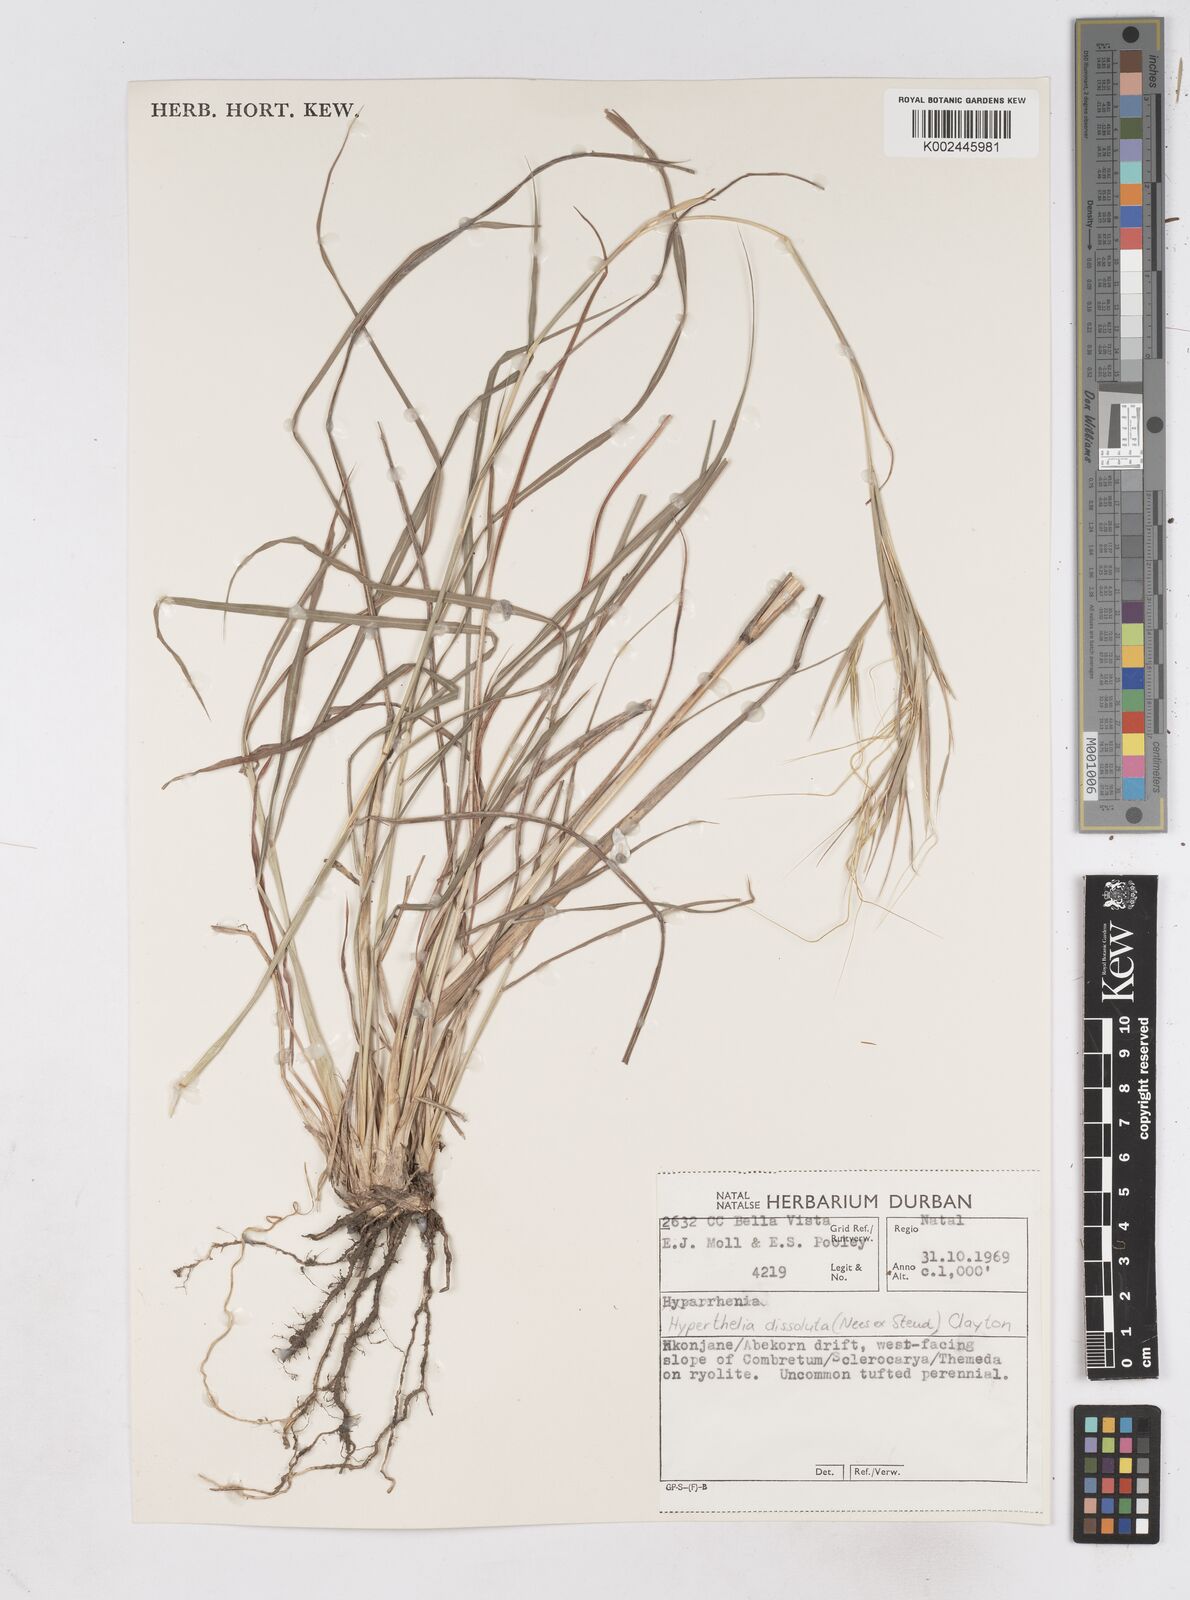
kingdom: Plantae
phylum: Tracheophyta
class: Liliopsida
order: Poales
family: Poaceae
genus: Hyperthelia
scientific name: Hyperthelia dissoluta
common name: Yellow thatching grass
